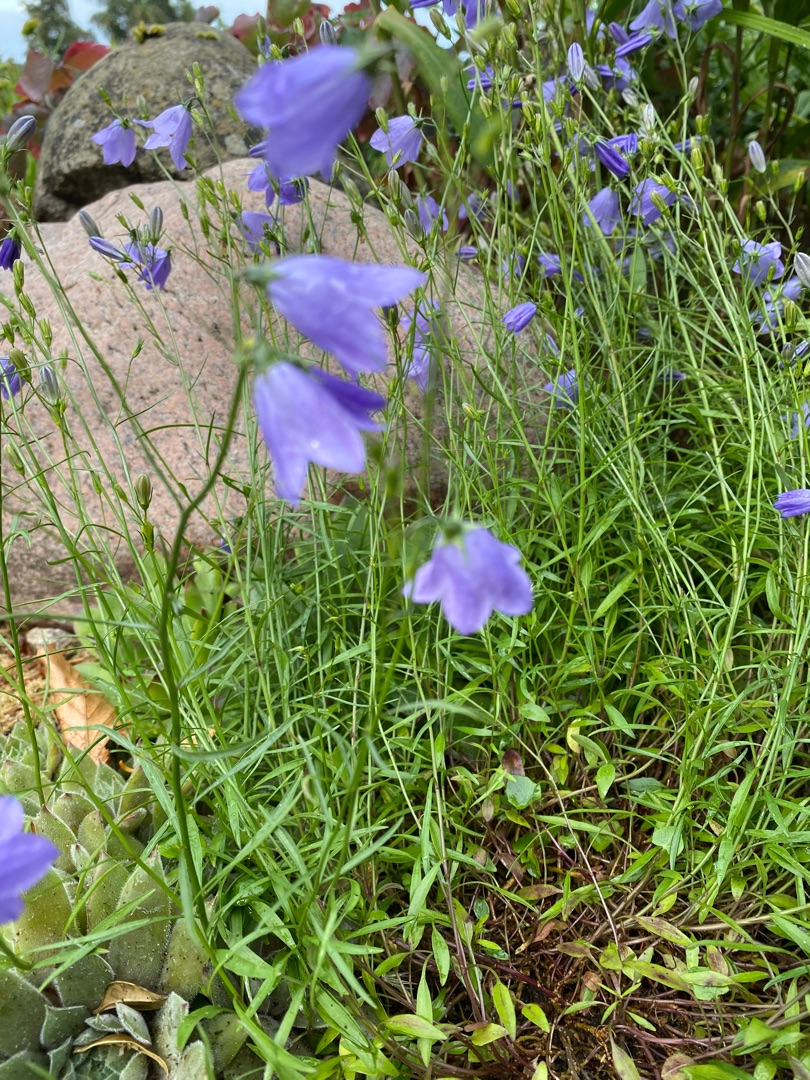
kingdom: Plantae
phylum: Tracheophyta
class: Magnoliopsida
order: Asterales
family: Campanulaceae
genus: Campanula
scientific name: Campanula rotundifolia
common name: Liden klokke
